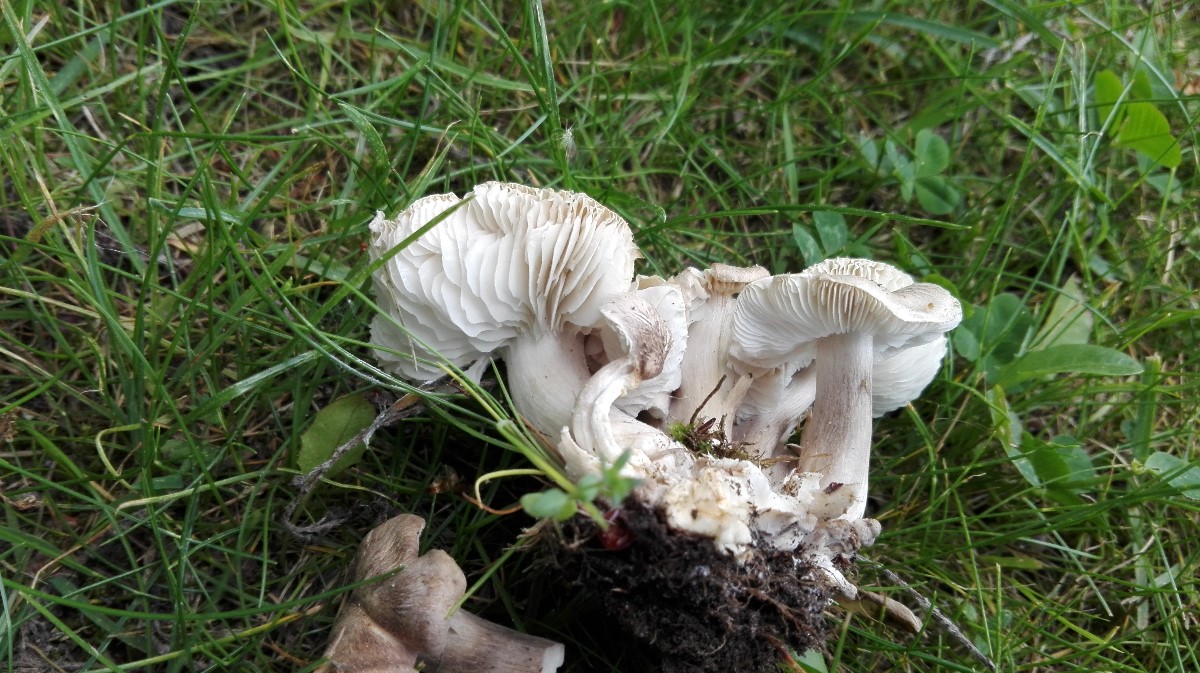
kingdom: Fungi
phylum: Basidiomycota
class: Agaricomycetes
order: Agaricales
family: Tricholomataceae
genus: Tricholoma
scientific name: Tricholoma argyraceum
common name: spids ridderhat
